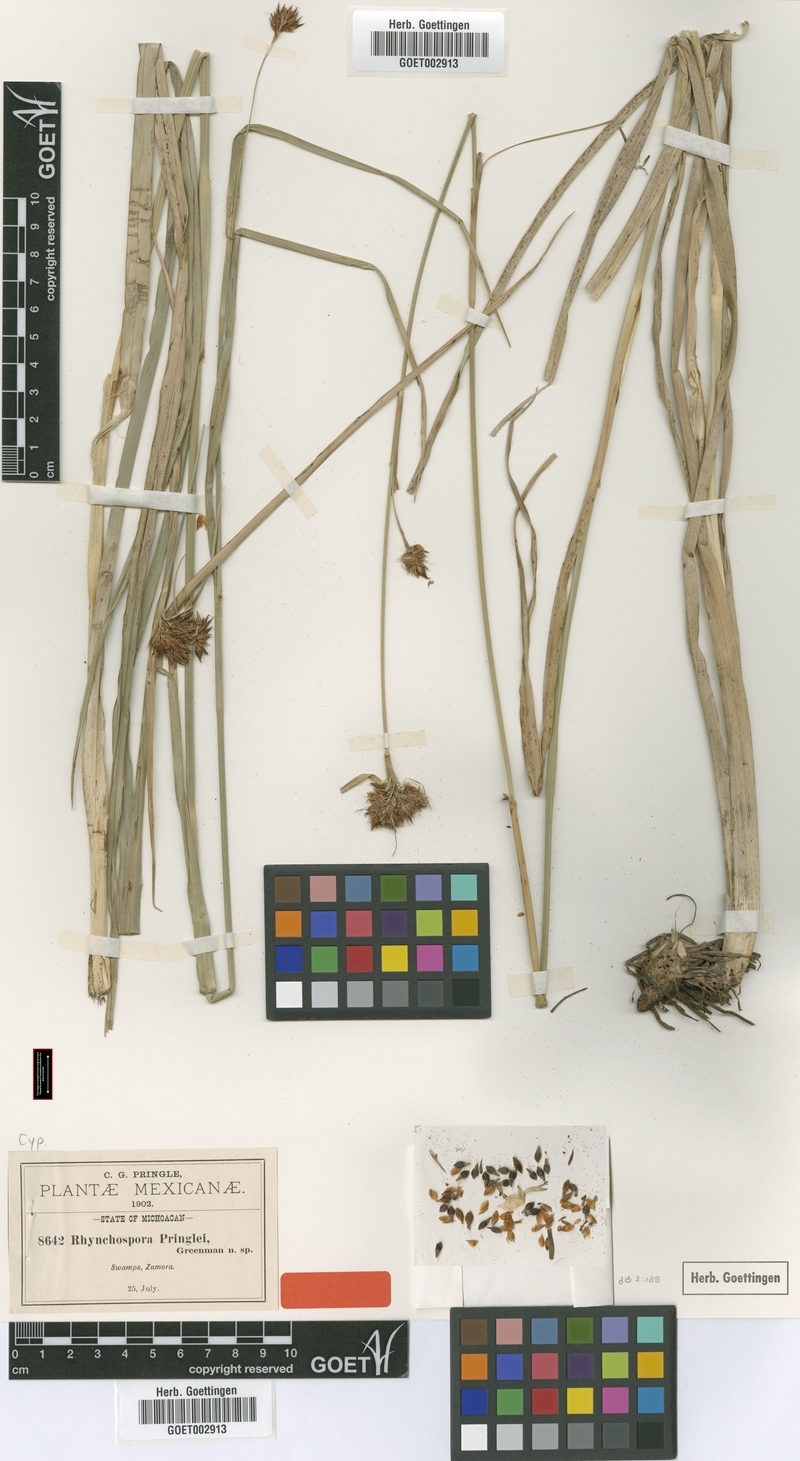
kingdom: Plantae
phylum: Tracheophyta
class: Liliopsida
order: Poales
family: Cyperaceae
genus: Rhynchospora
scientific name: Rhynchospora scutellata
